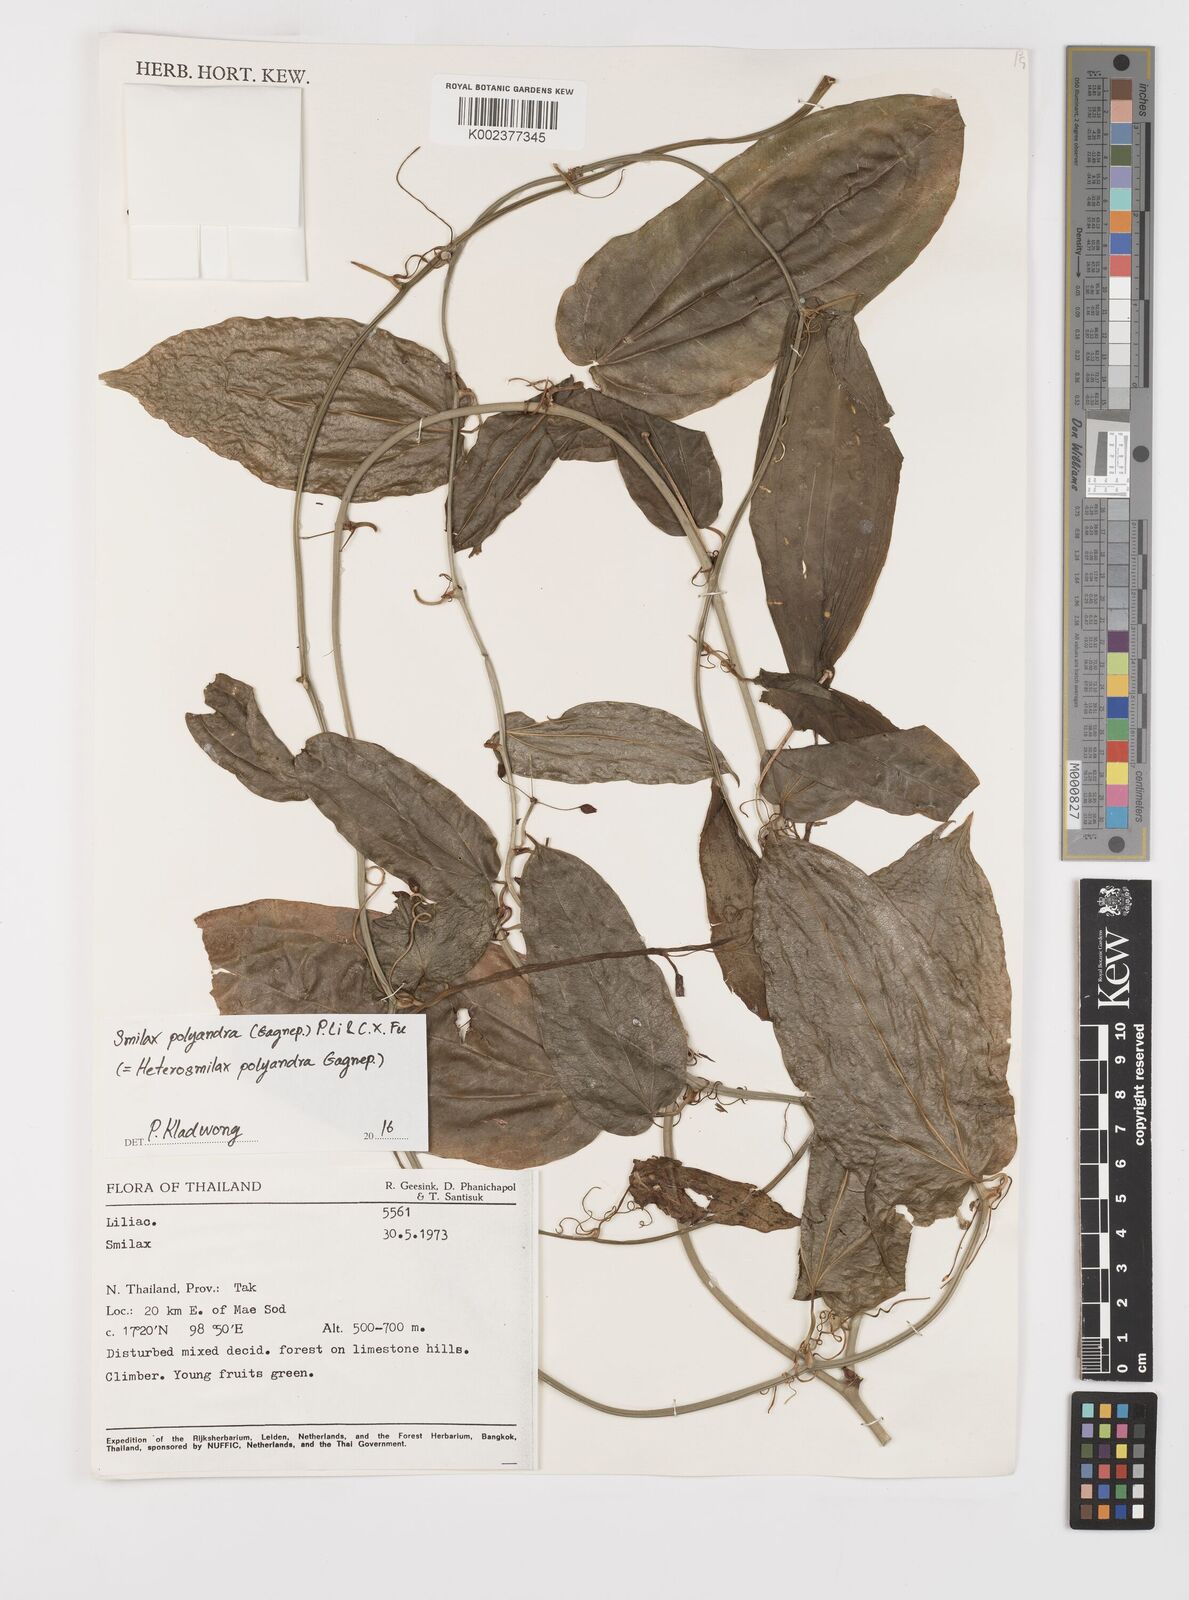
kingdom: Plantae
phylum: Tracheophyta
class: Liliopsida
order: Liliales
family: Smilacaceae
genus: Smilax
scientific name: Smilax polyandra
